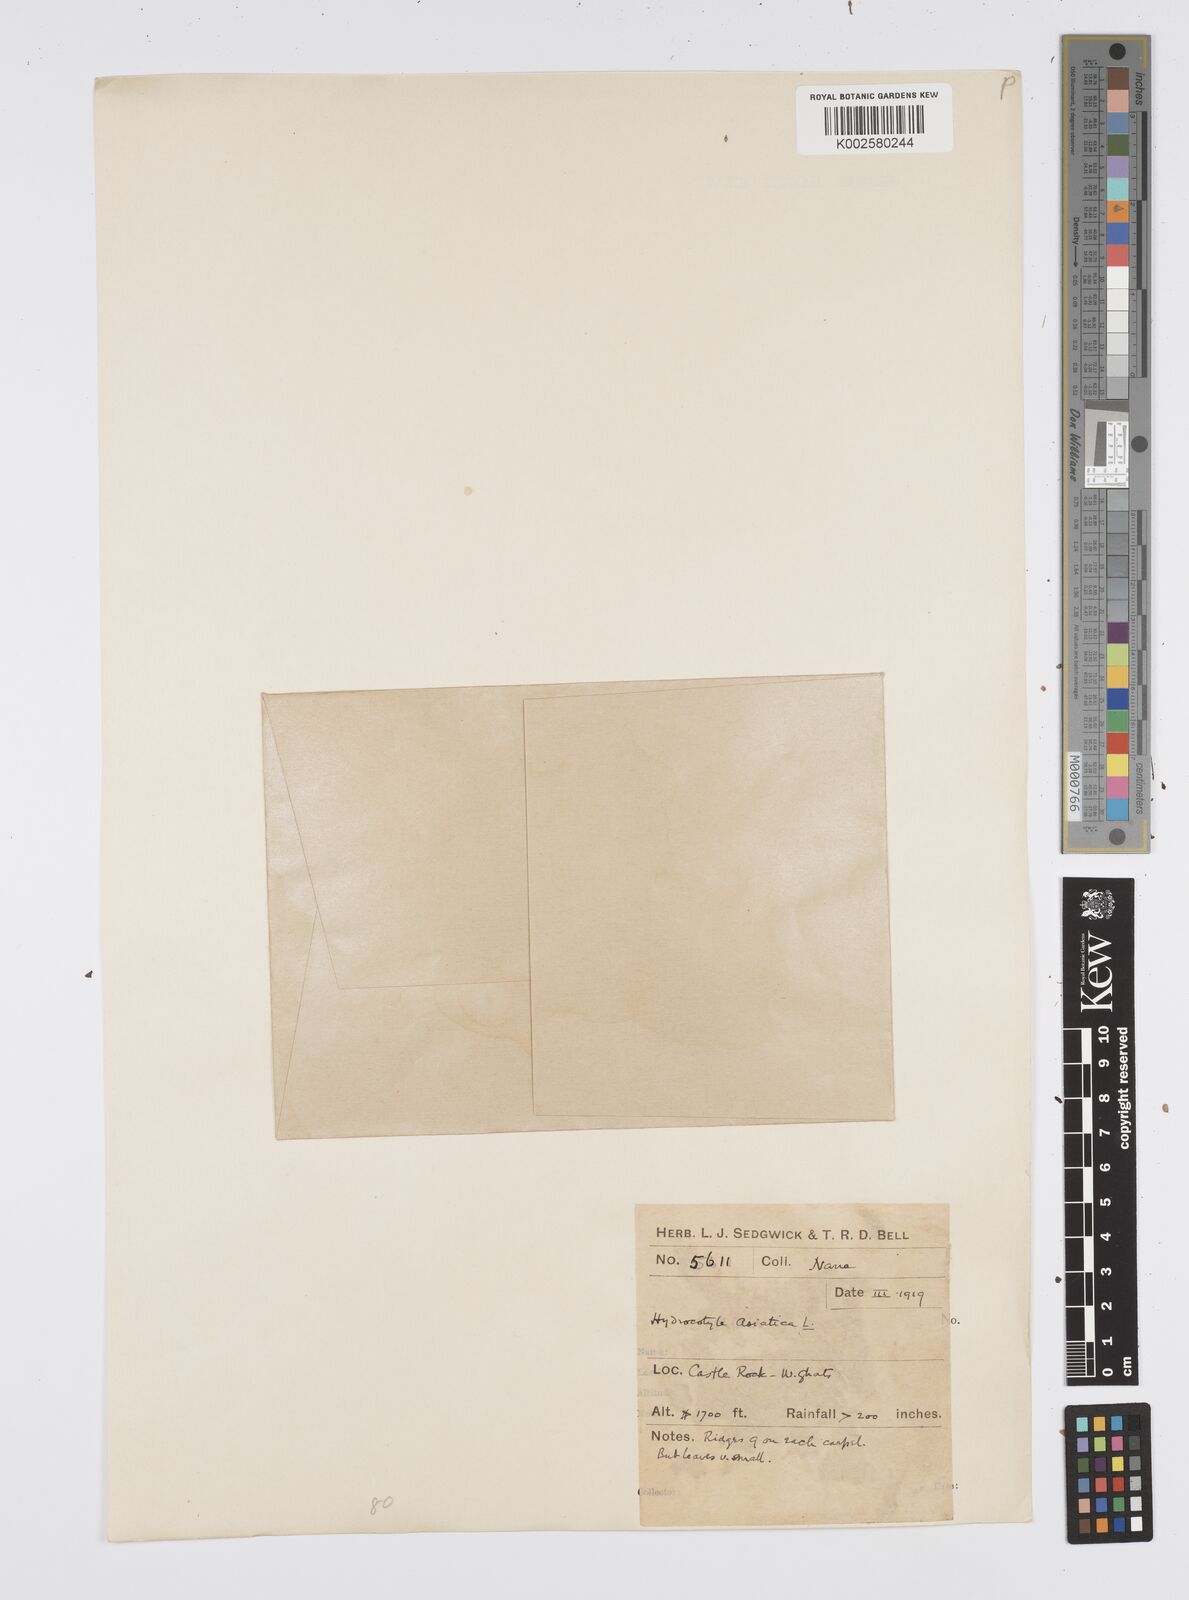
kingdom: Plantae
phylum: Tracheophyta
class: Magnoliopsida
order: Apiales
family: Apiaceae
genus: Centella
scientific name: Centella asiatica
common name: Spadeleaf
